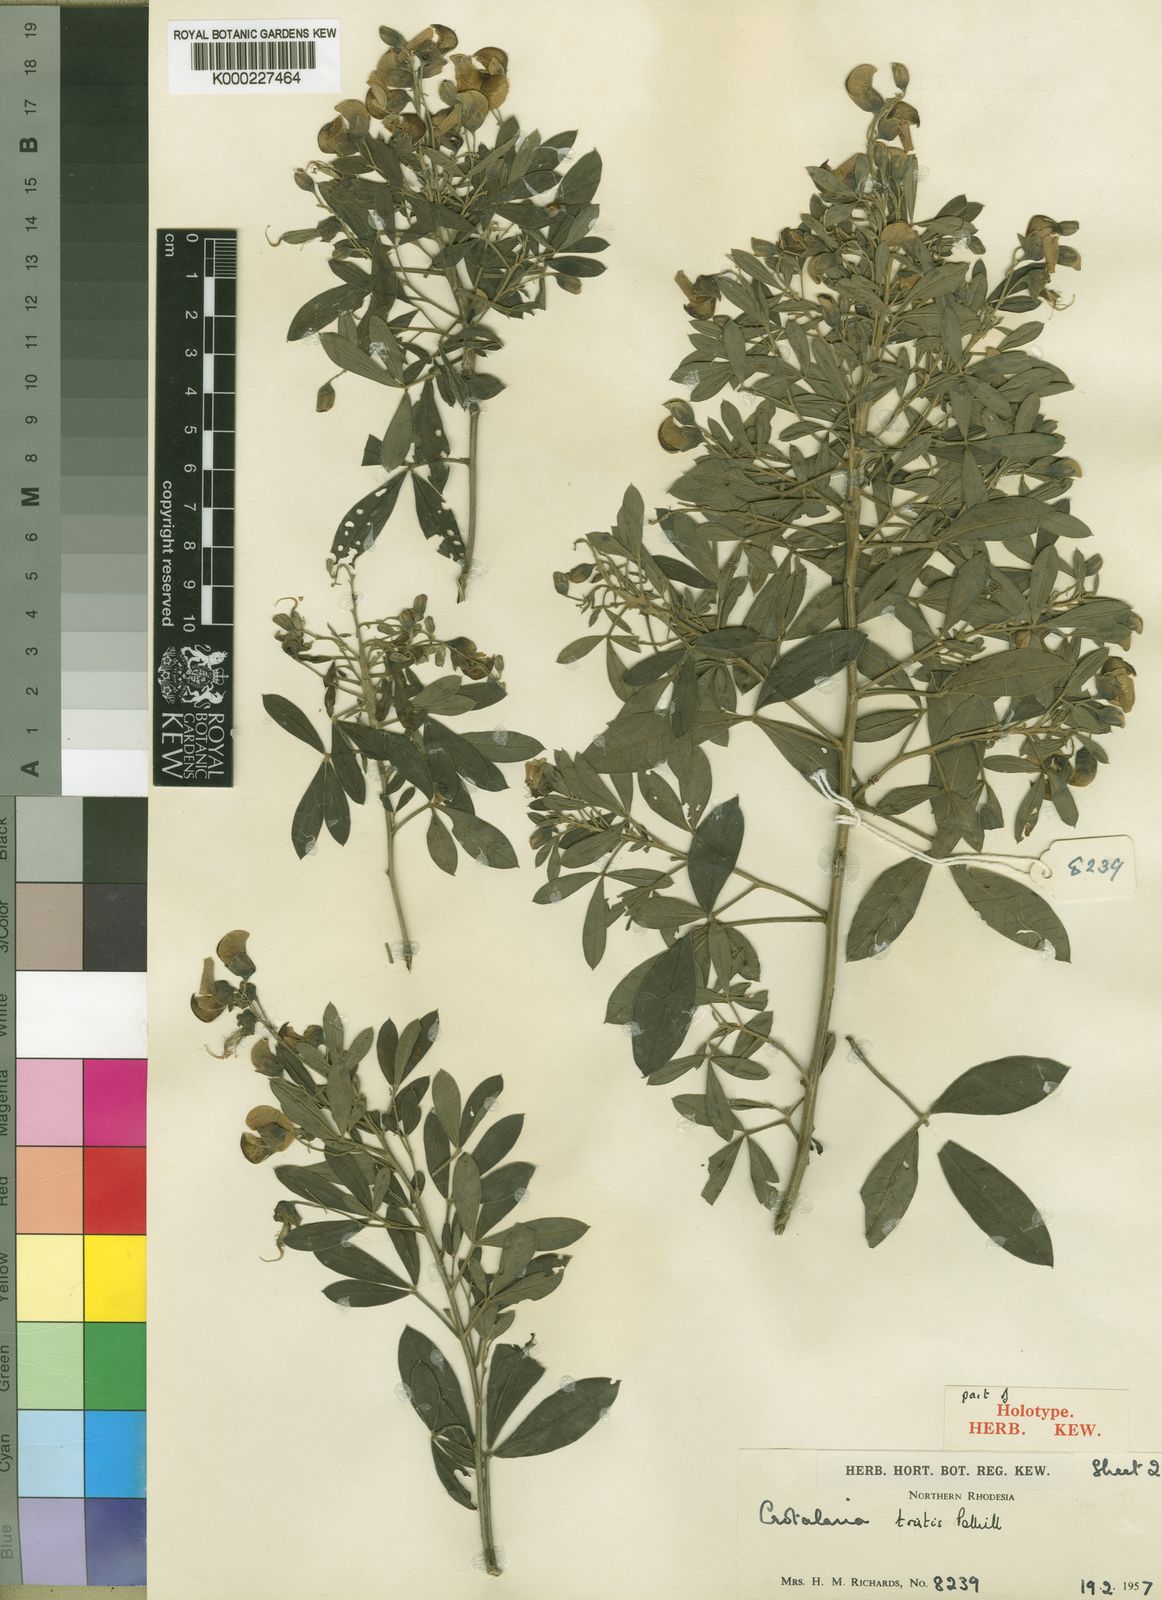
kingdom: Plantae
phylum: Tracheophyta
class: Magnoliopsida
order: Fabales
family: Fabaceae
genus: Crotalaria
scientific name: Crotalaria tristis
